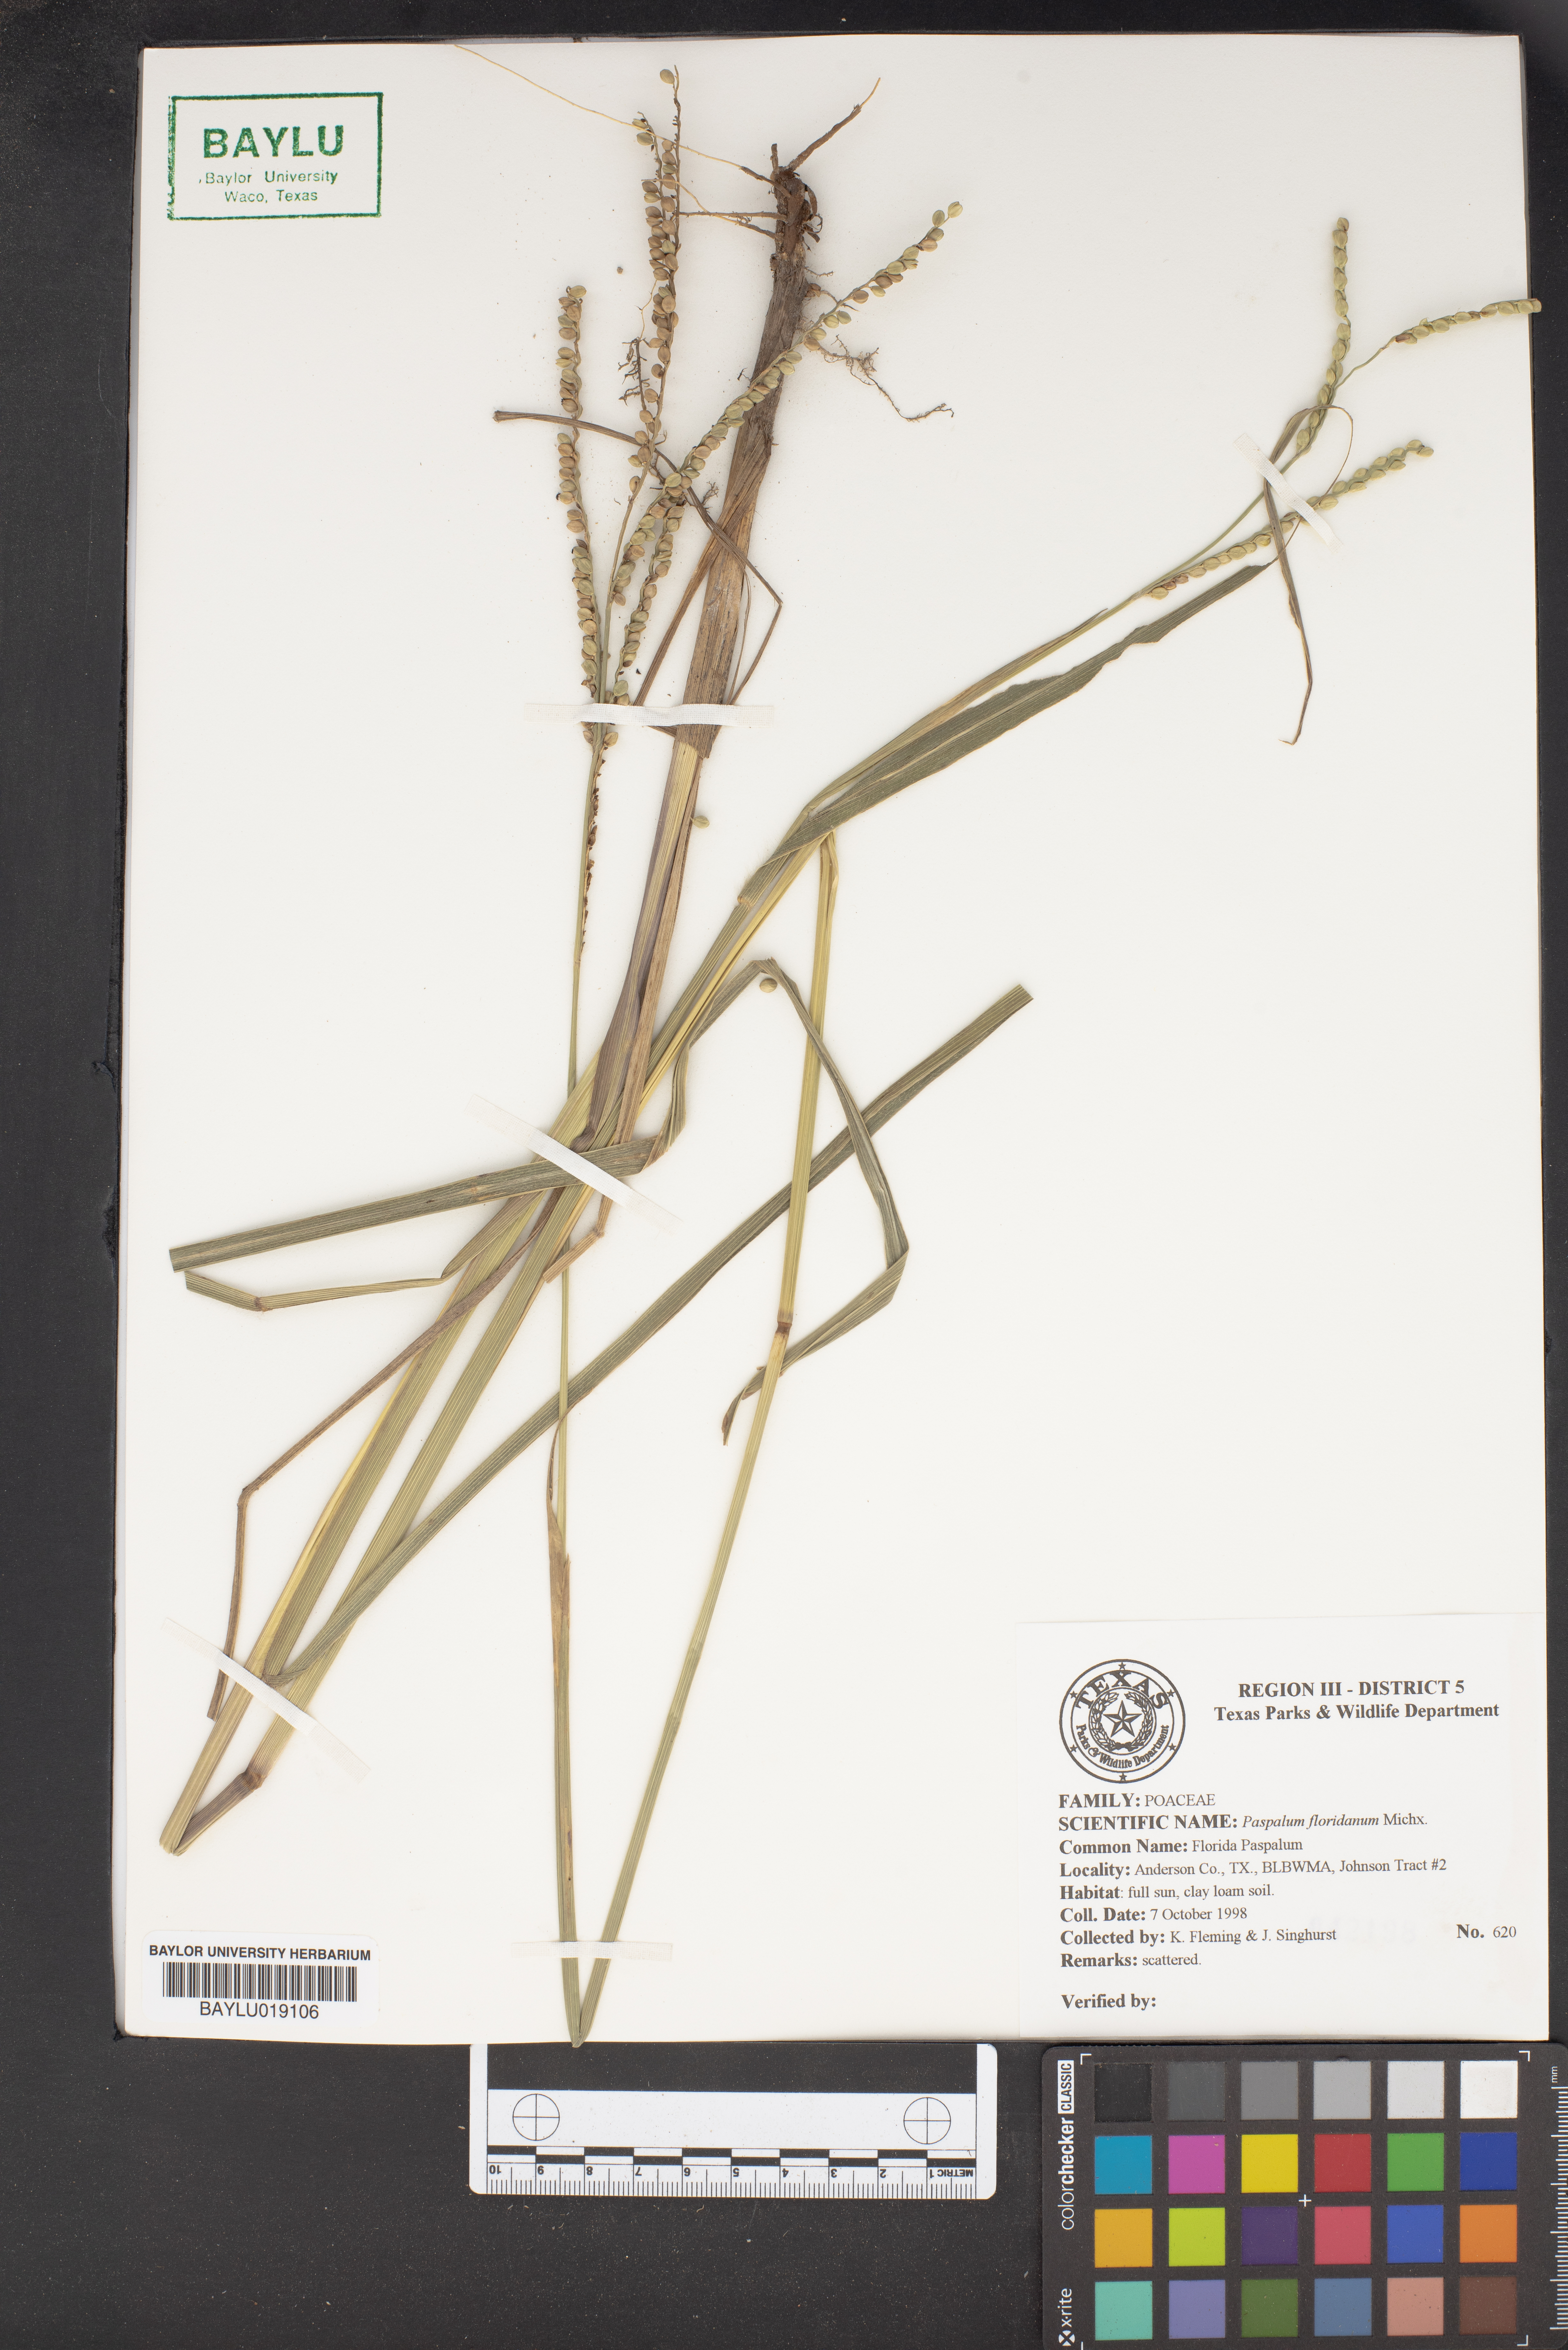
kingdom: Plantae
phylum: Tracheophyta
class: Liliopsida
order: Poales
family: Poaceae
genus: Paspalum
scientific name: Paspalum floridanum
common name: Florida paspalum
